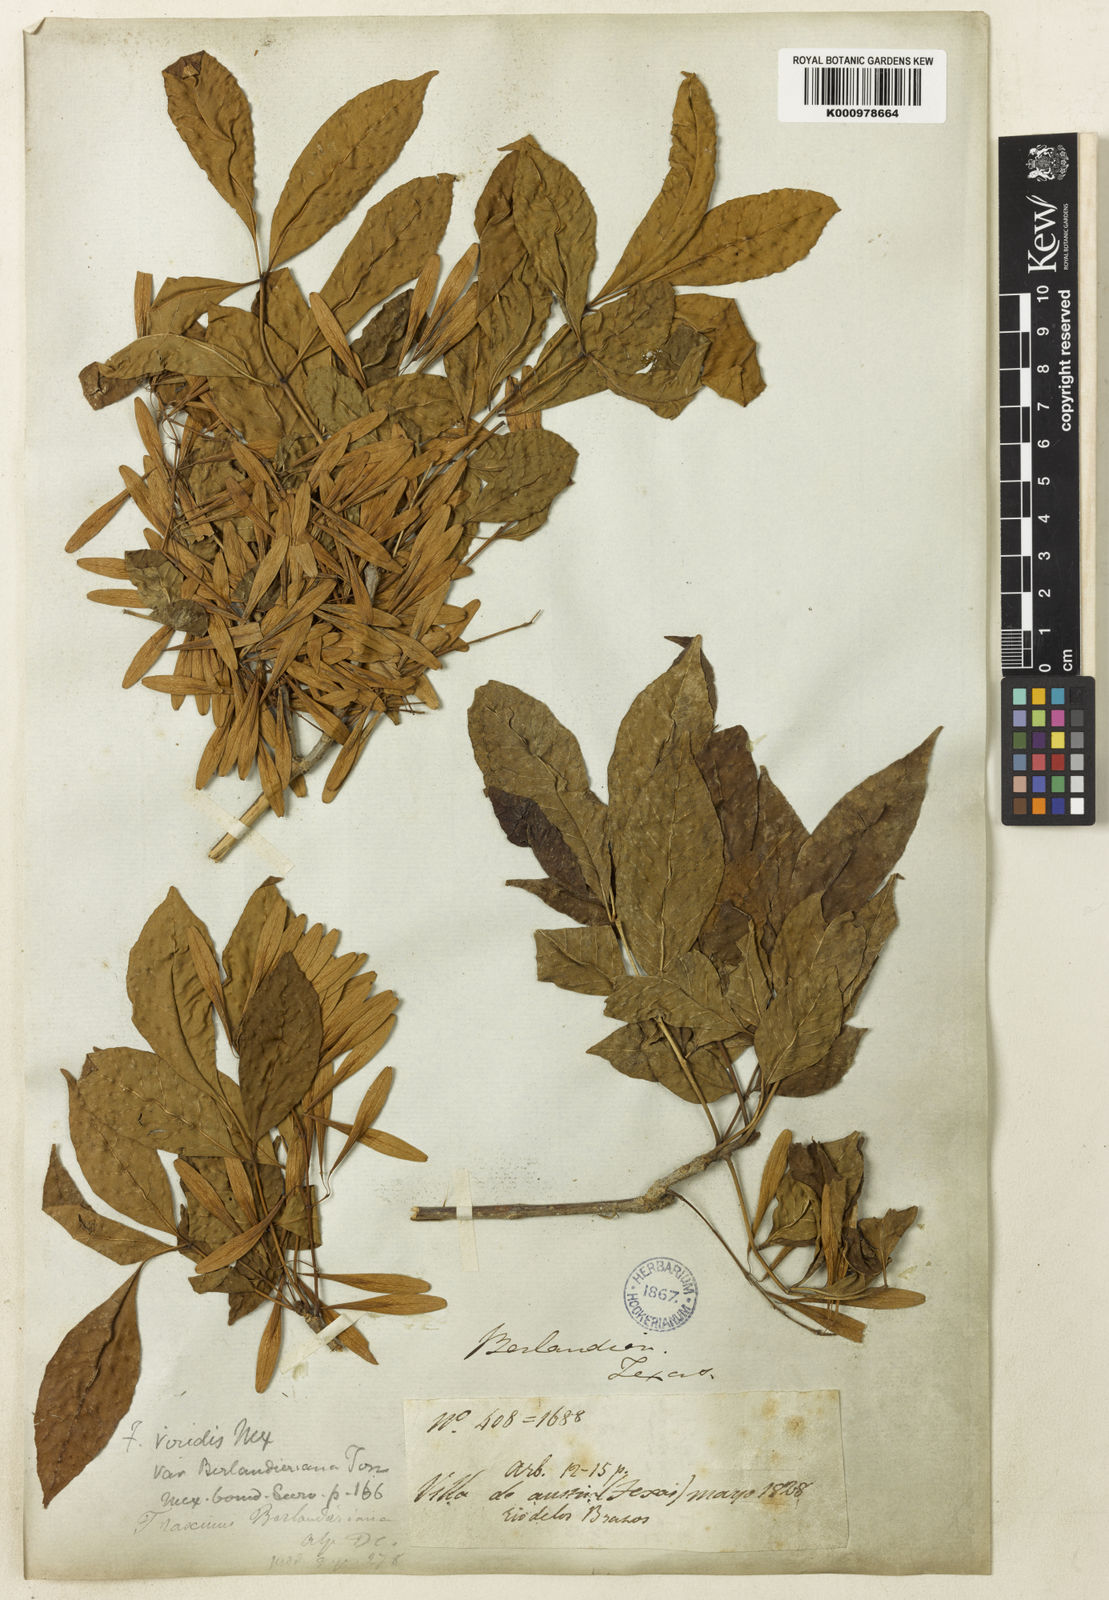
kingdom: Plantae
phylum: Tracheophyta
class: Magnoliopsida
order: Lamiales
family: Oleaceae
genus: Fraxinus
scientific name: Fraxinus berlandieriana
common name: Berlandier ash
